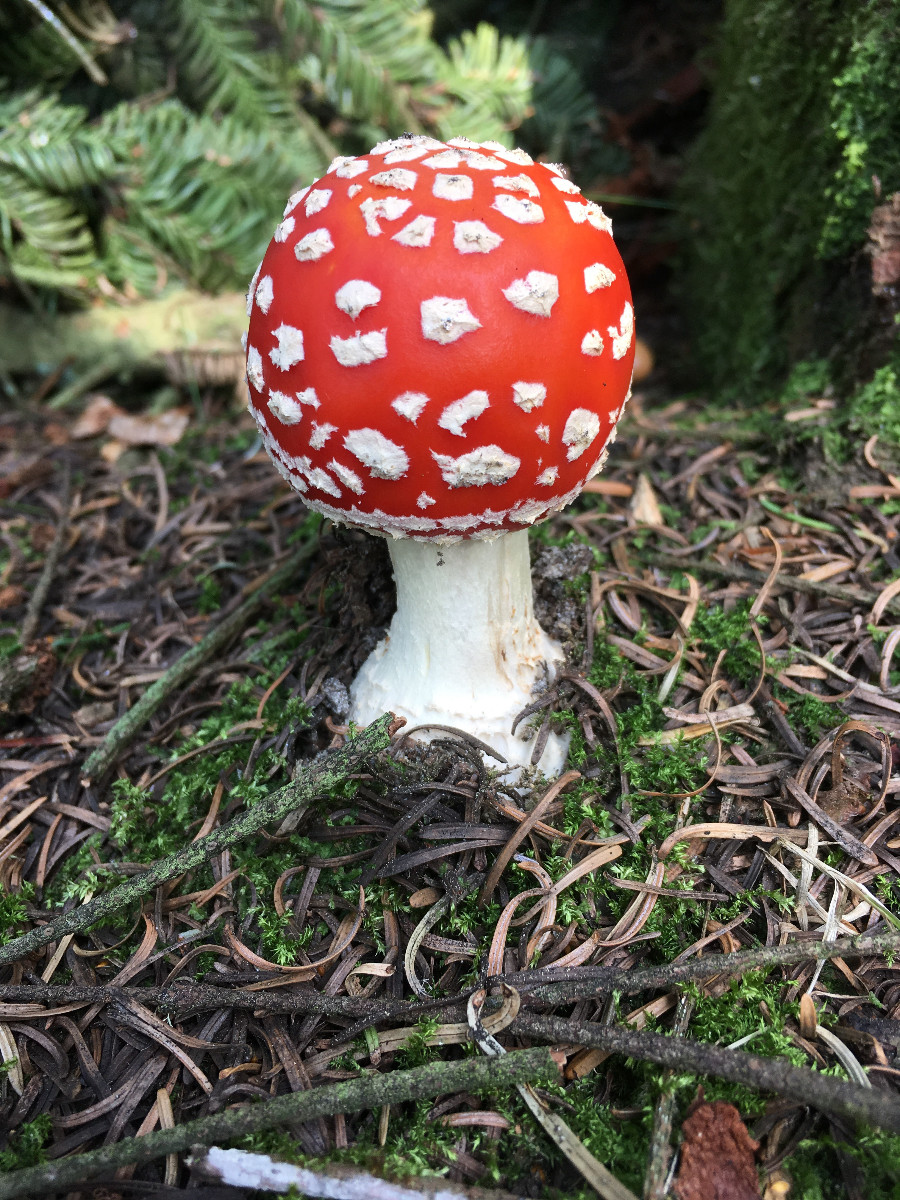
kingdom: Fungi
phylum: Basidiomycota
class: Agaricomycetes
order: Agaricales
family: Amanitaceae
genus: Amanita
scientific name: Amanita muscaria
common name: rød fluesvamp
